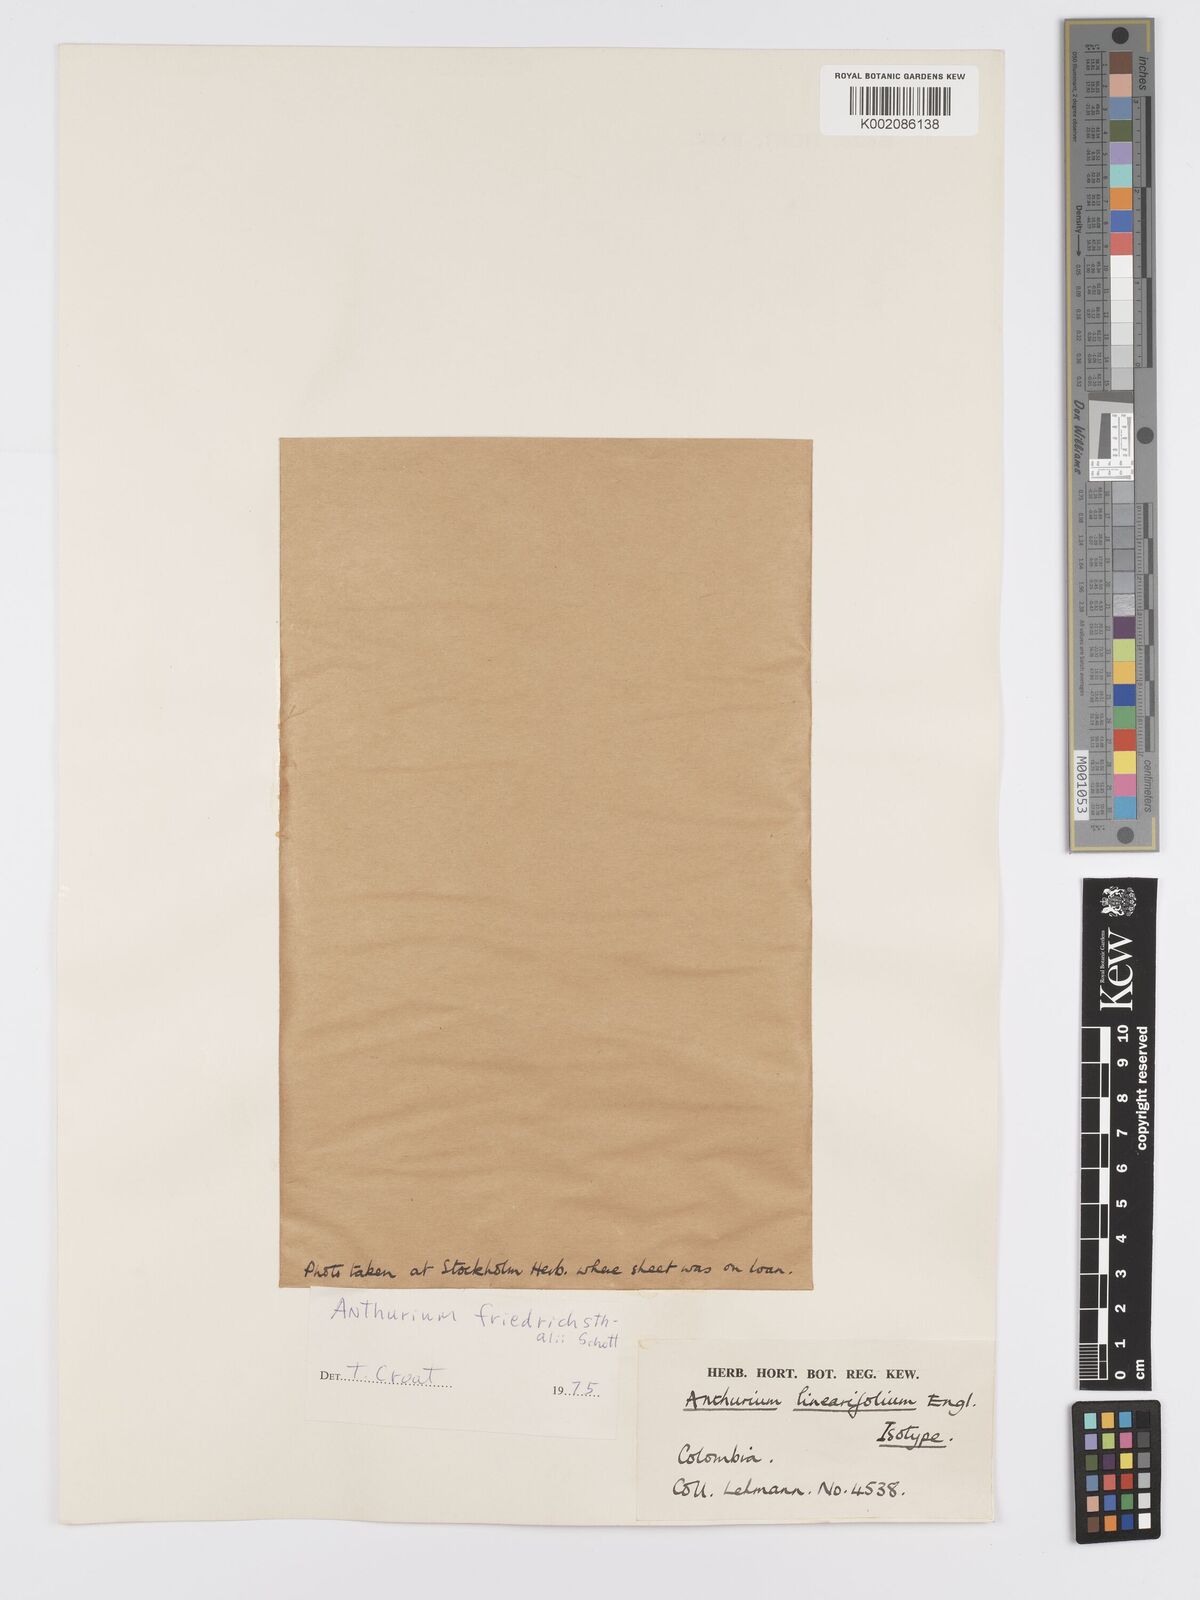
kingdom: Plantae
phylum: Tracheophyta
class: Liliopsida
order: Alismatales
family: Araceae
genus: Anthurium
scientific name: Anthurium friedrichsthalii
